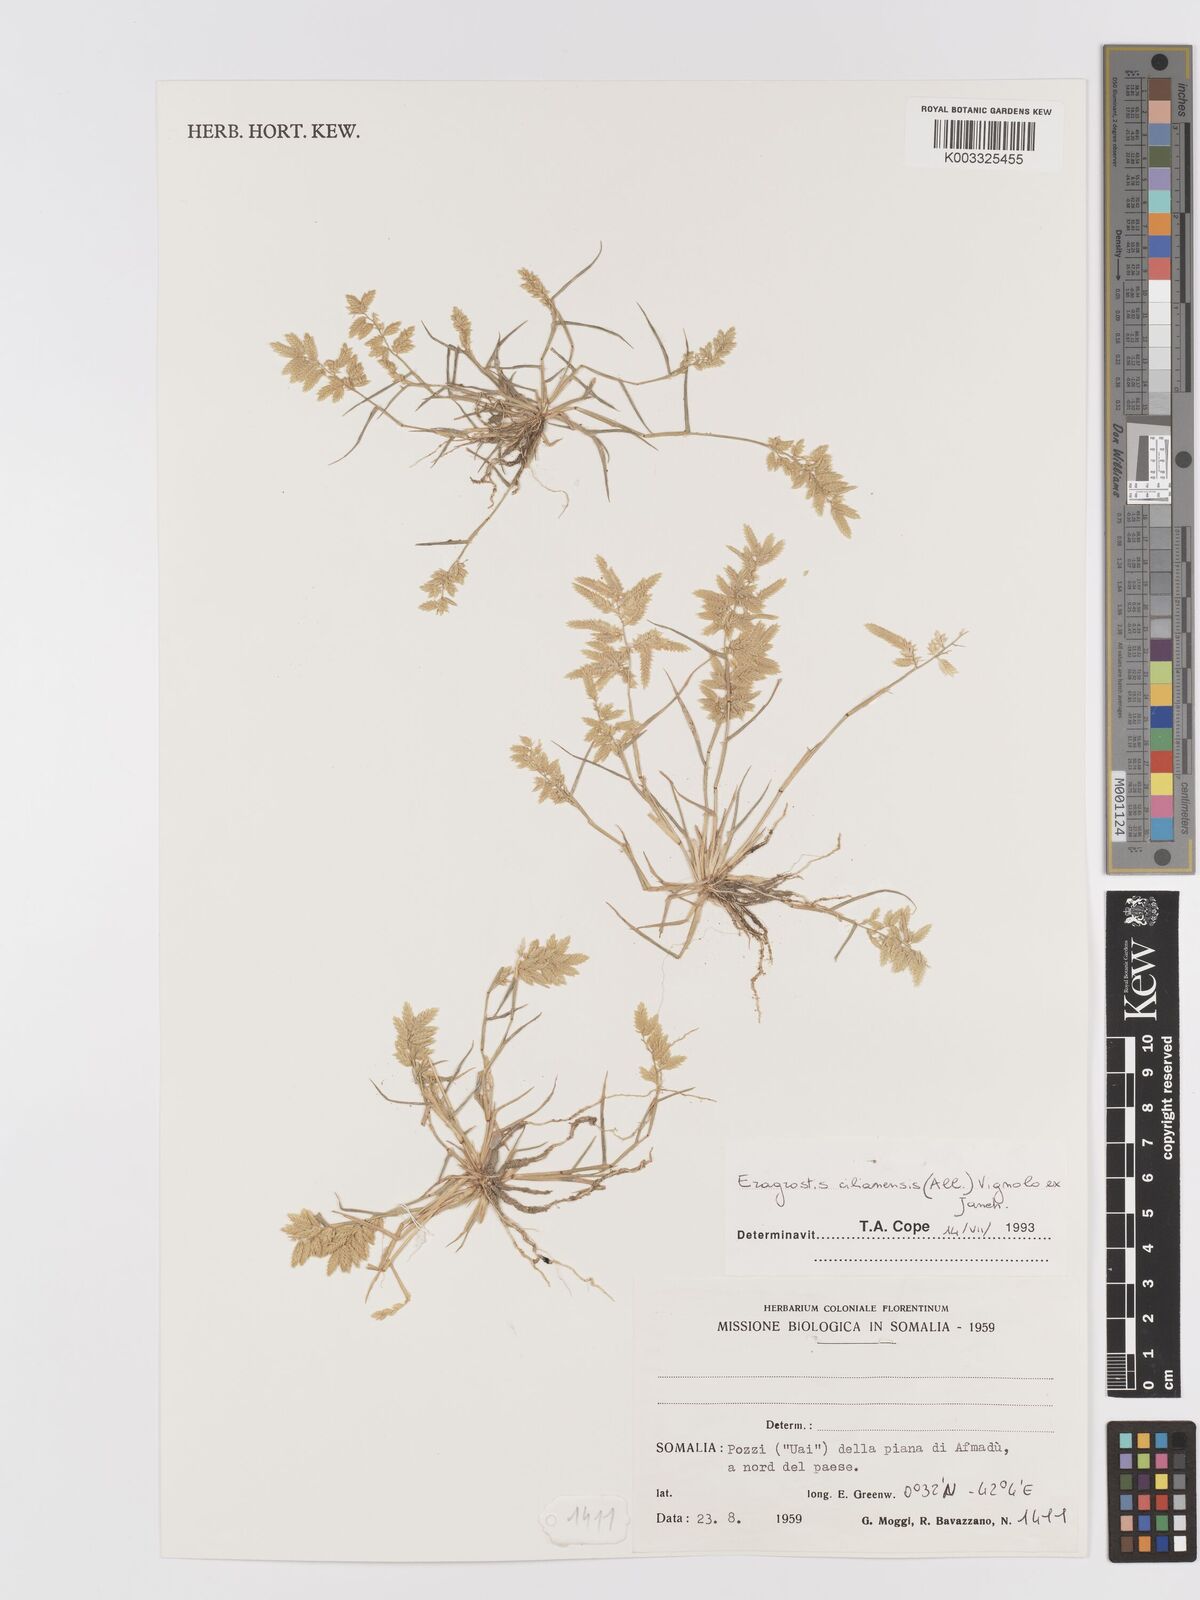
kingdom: Plantae
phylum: Tracheophyta
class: Liliopsida
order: Poales
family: Poaceae
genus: Eragrostis
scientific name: Eragrostis cilianensis
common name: Stinkgrass
